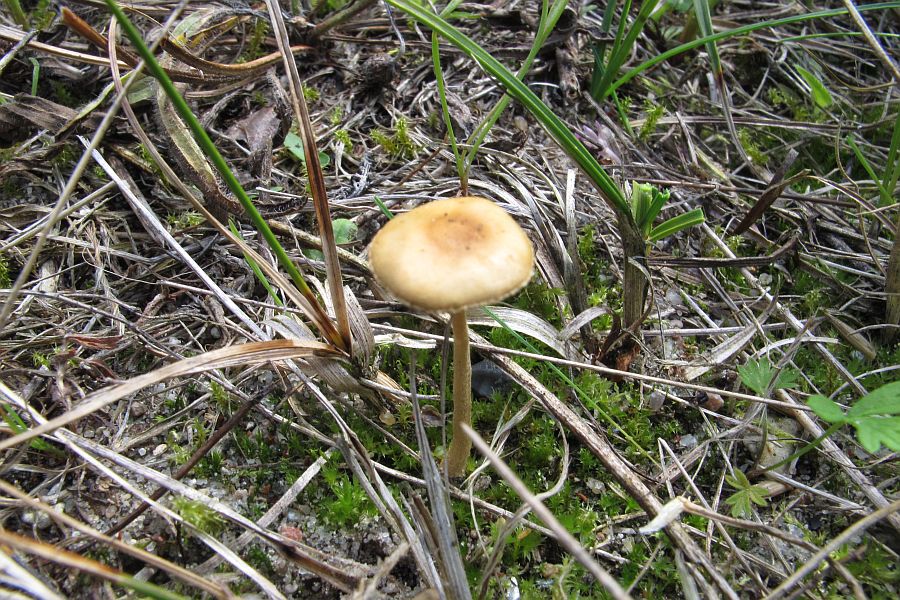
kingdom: Fungi
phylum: Basidiomycota
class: Agaricomycetes
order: Agaricales
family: Strophariaceae
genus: Agrocybe
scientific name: Agrocybe pediades
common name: almindelig agerhat
